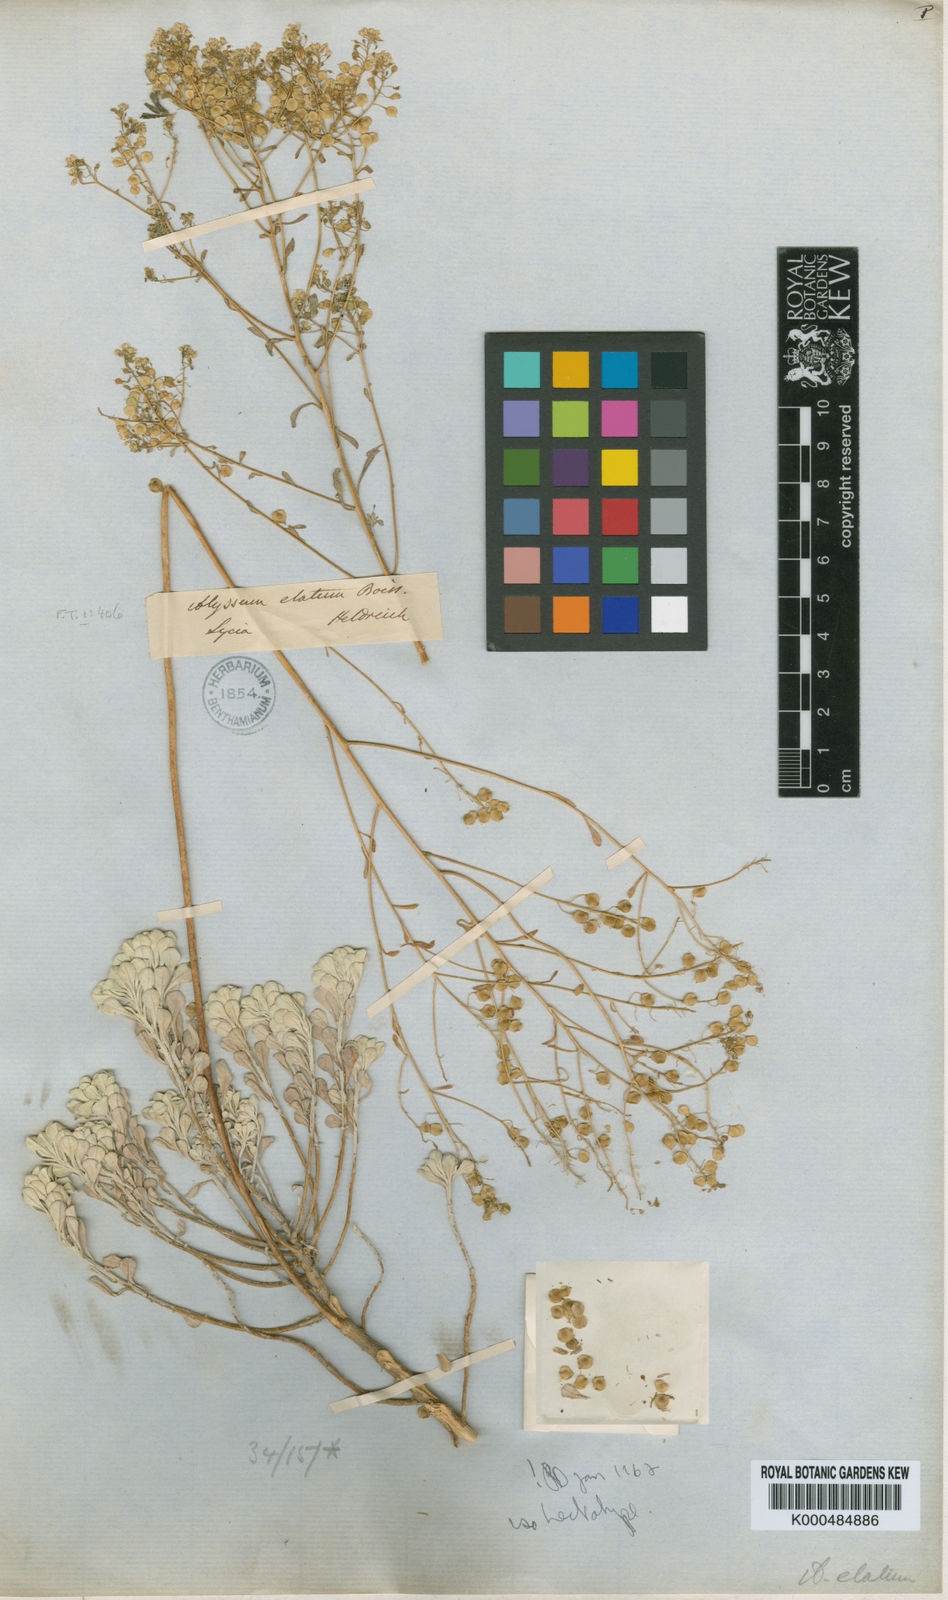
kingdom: Plantae
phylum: Tracheophyta
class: Magnoliopsida
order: Brassicales
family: Brassicaceae
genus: Odontarrhena
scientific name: Odontarrhena pterocarpa
